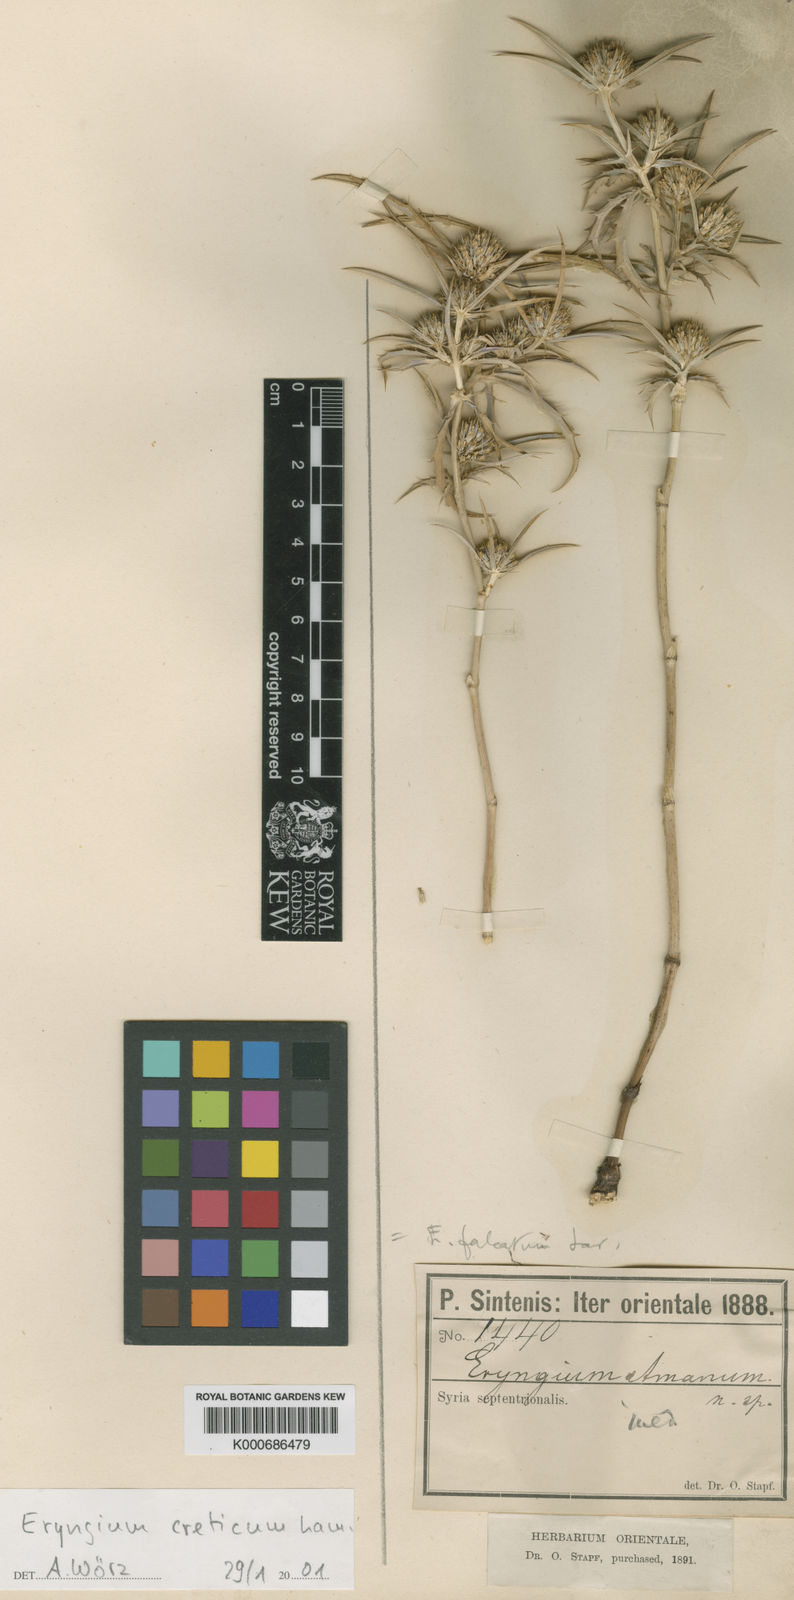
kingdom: Plantae
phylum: Tracheophyta
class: Magnoliopsida
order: Apiales
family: Apiaceae
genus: Eryngium
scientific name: Eryngium creticum
